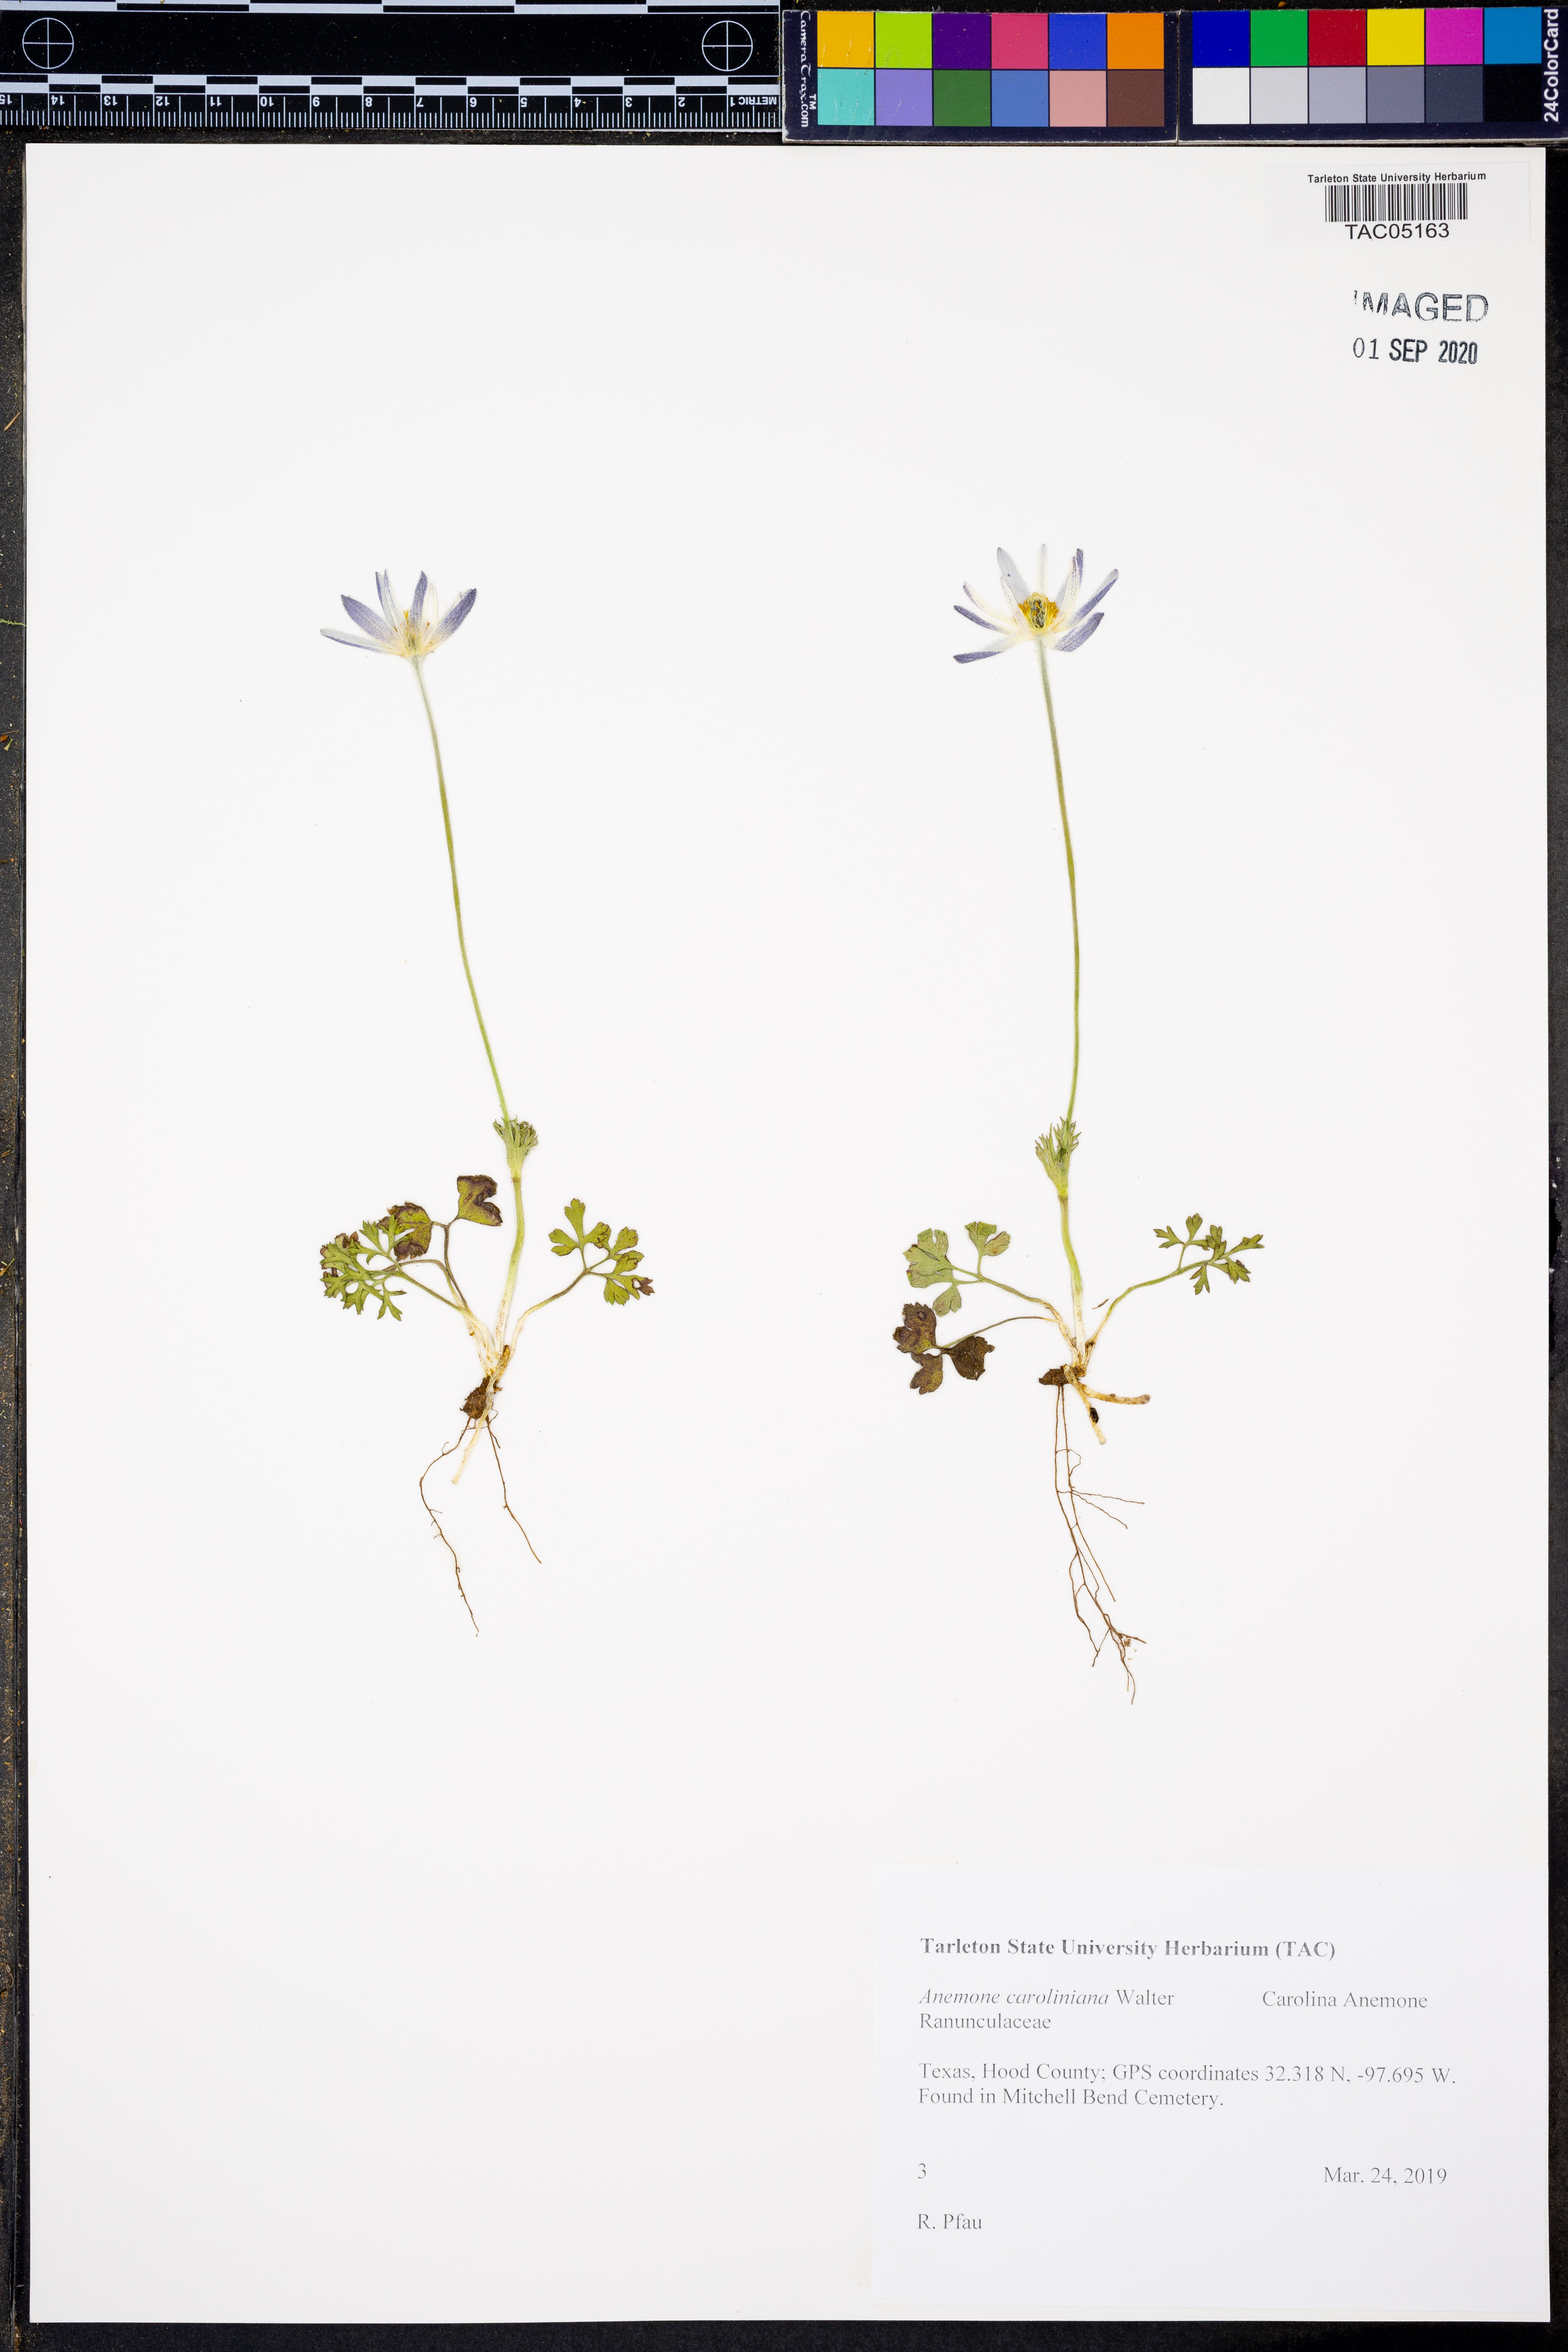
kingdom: Plantae
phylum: Tracheophyta
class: Magnoliopsida
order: Ranunculales
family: Ranunculaceae
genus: Anemone
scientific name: Anemone caroliniana
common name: Carolina anemone
